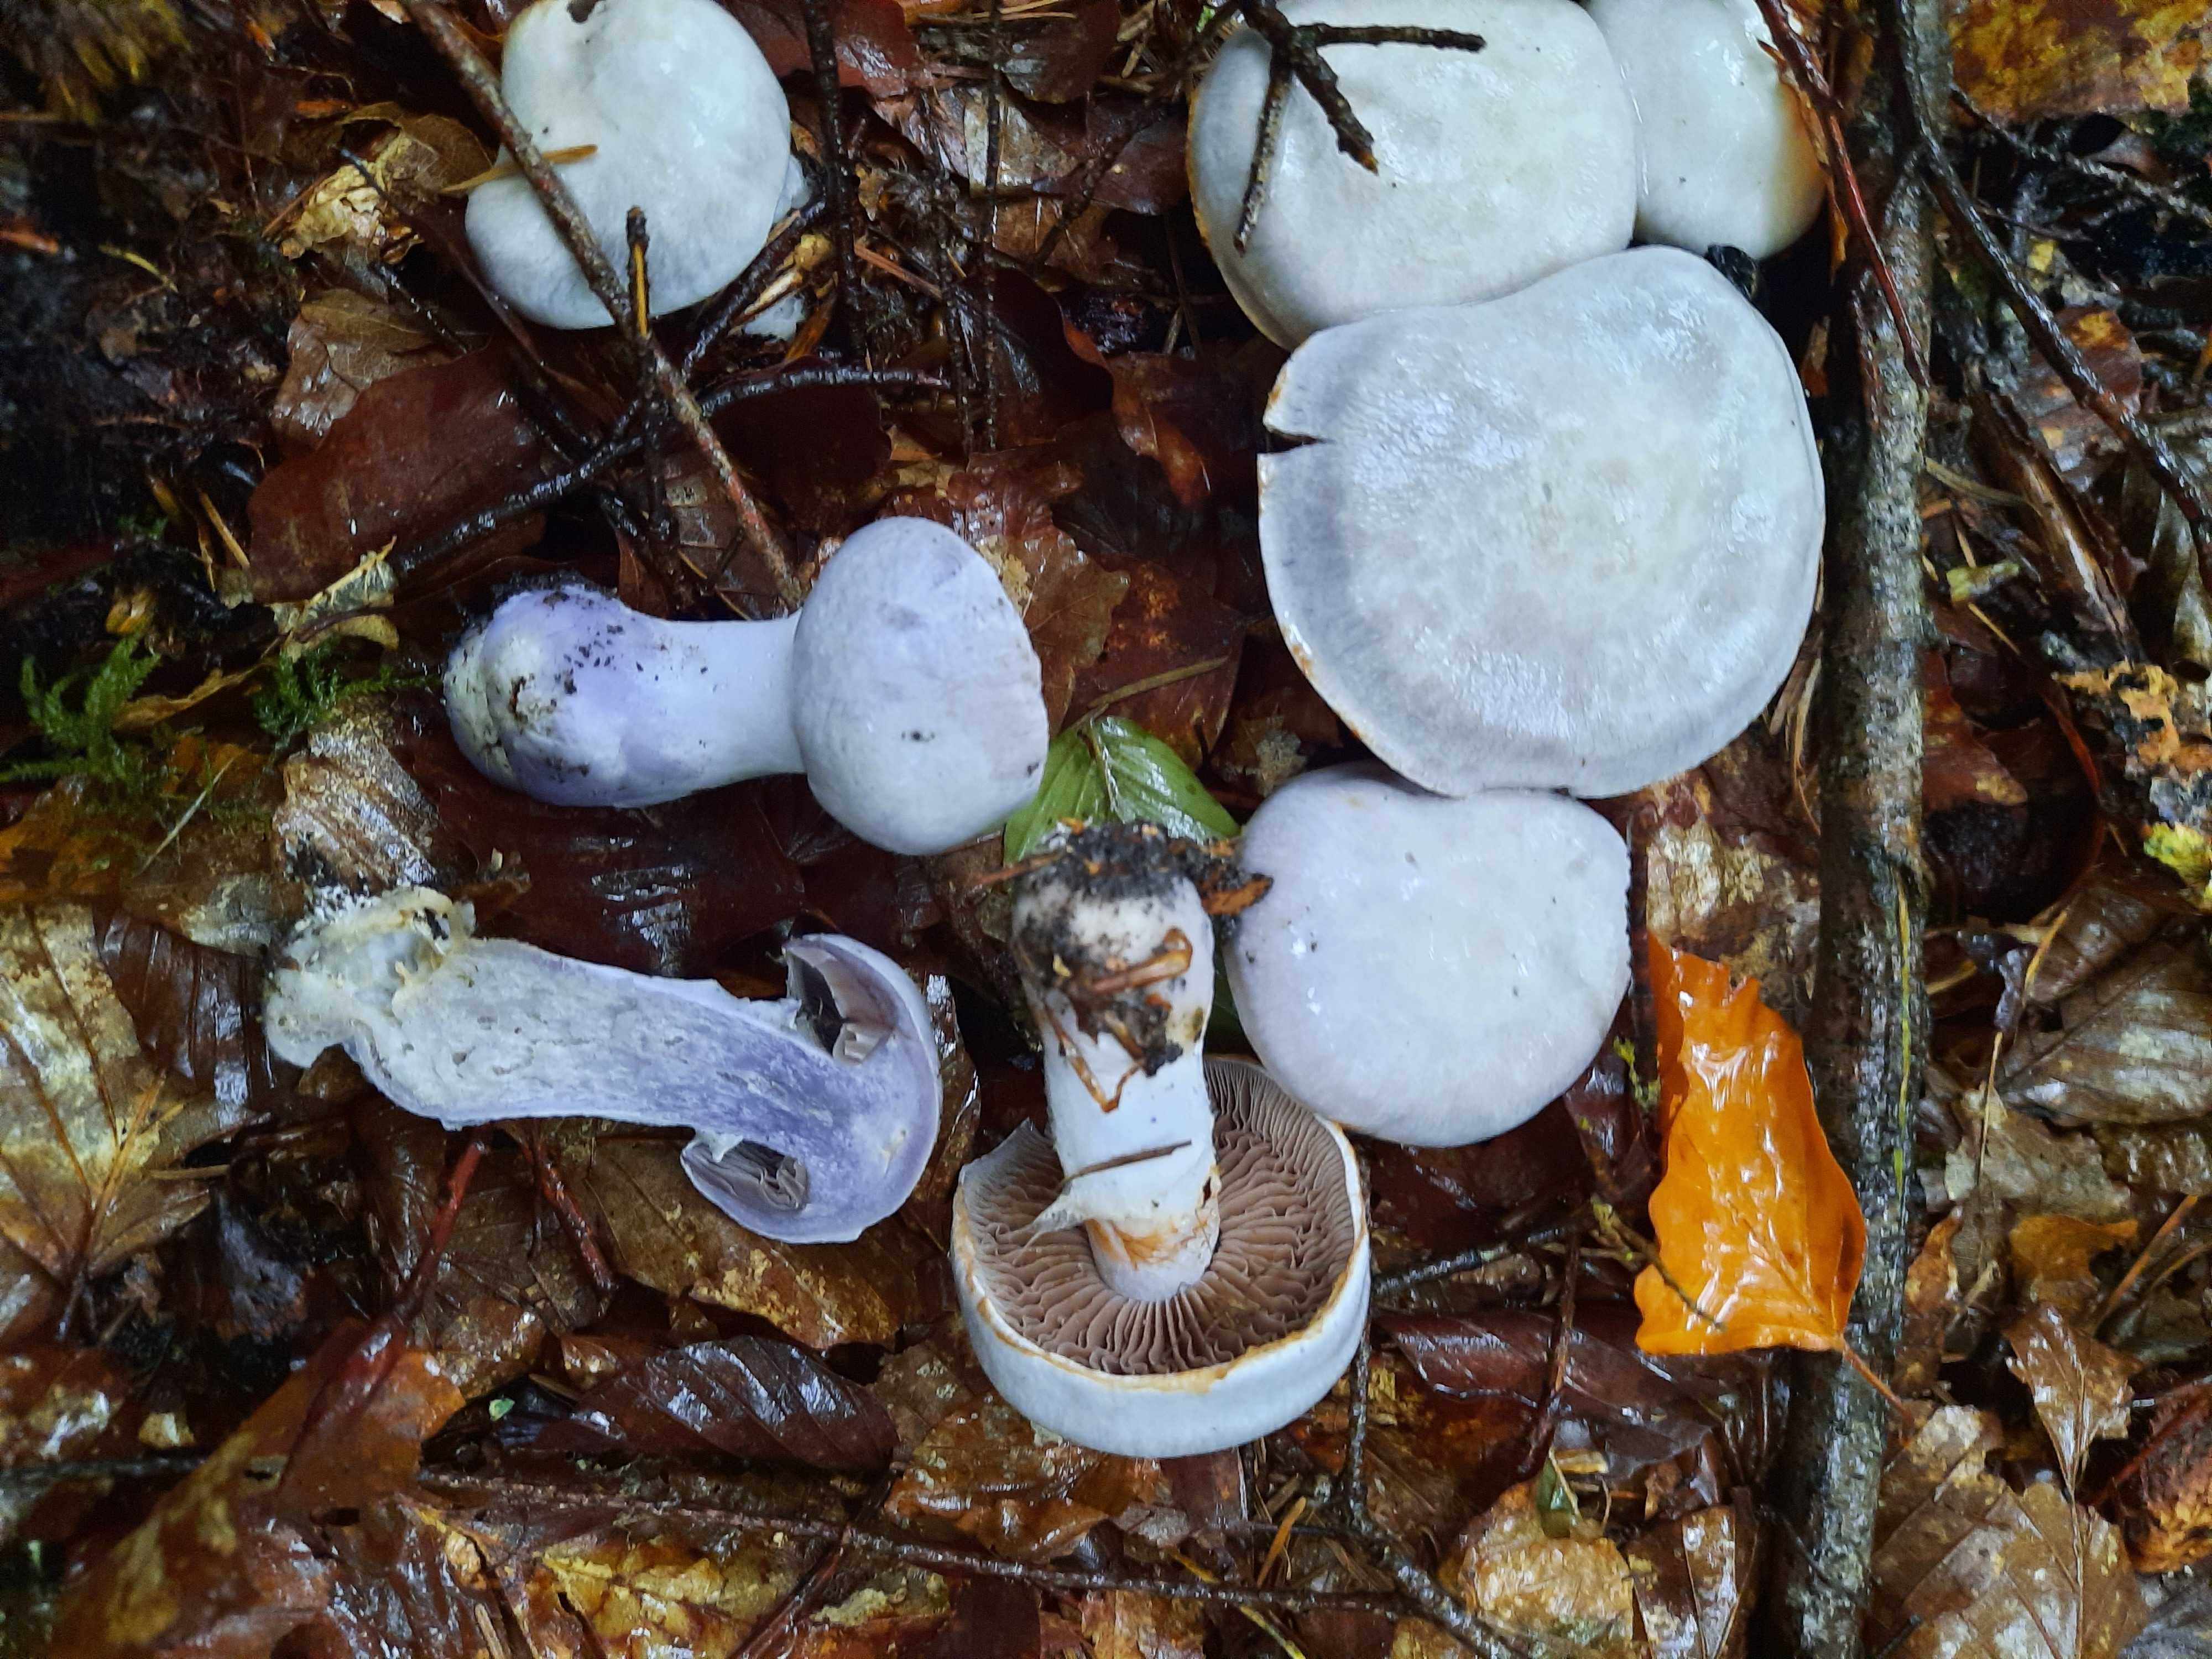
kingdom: Fungi
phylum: Basidiomycota
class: Agaricomycetes
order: Agaricales
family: Cortinariaceae
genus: Cortinarius
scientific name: Cortinarius alboviolaceus
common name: lysviolet slørhat
